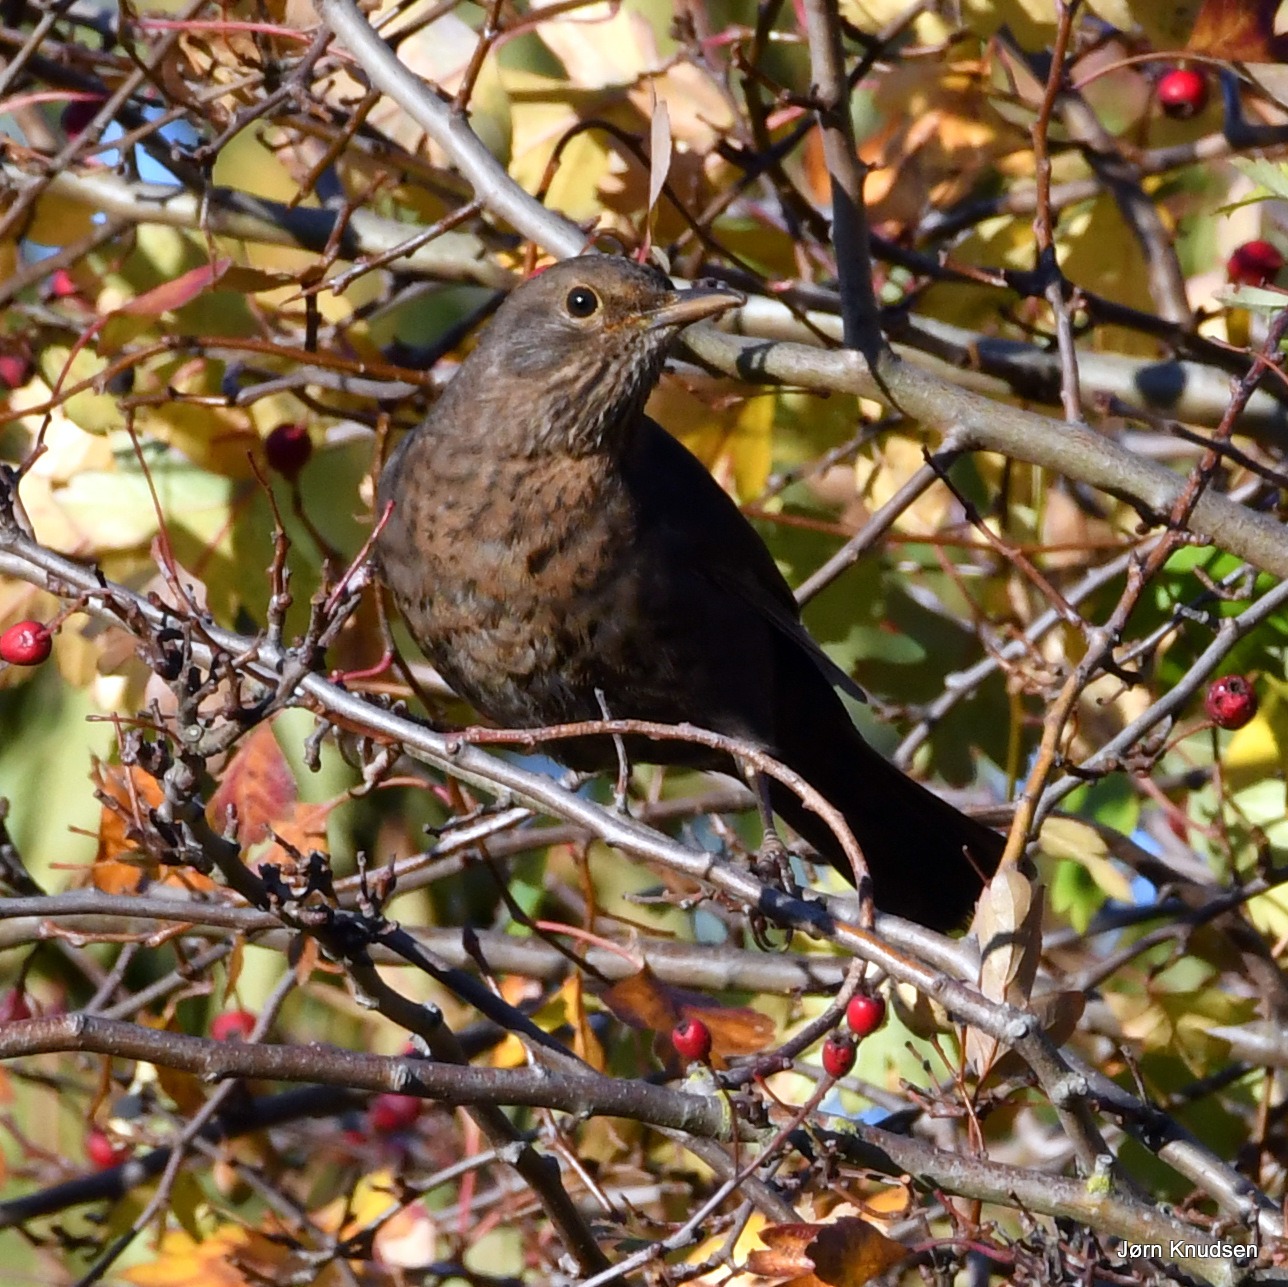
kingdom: Animalia
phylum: Chordata
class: Aves
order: Passeriformes
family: Turdidae
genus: Turdus
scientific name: Turdus merula
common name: Solsort
